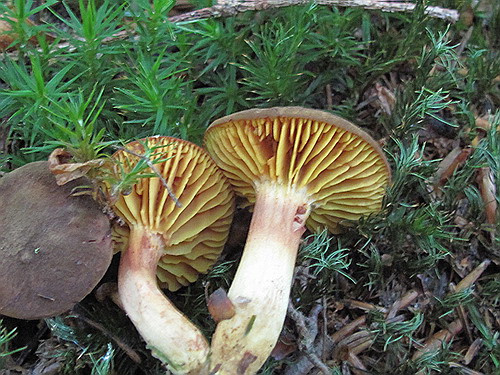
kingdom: Fungi
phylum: Basidiomycota
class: Agaricomycetes
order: Boletales
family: Boletaceae
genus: Phylloporus
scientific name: Phylloporus pelletieri
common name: lamelrørhat
